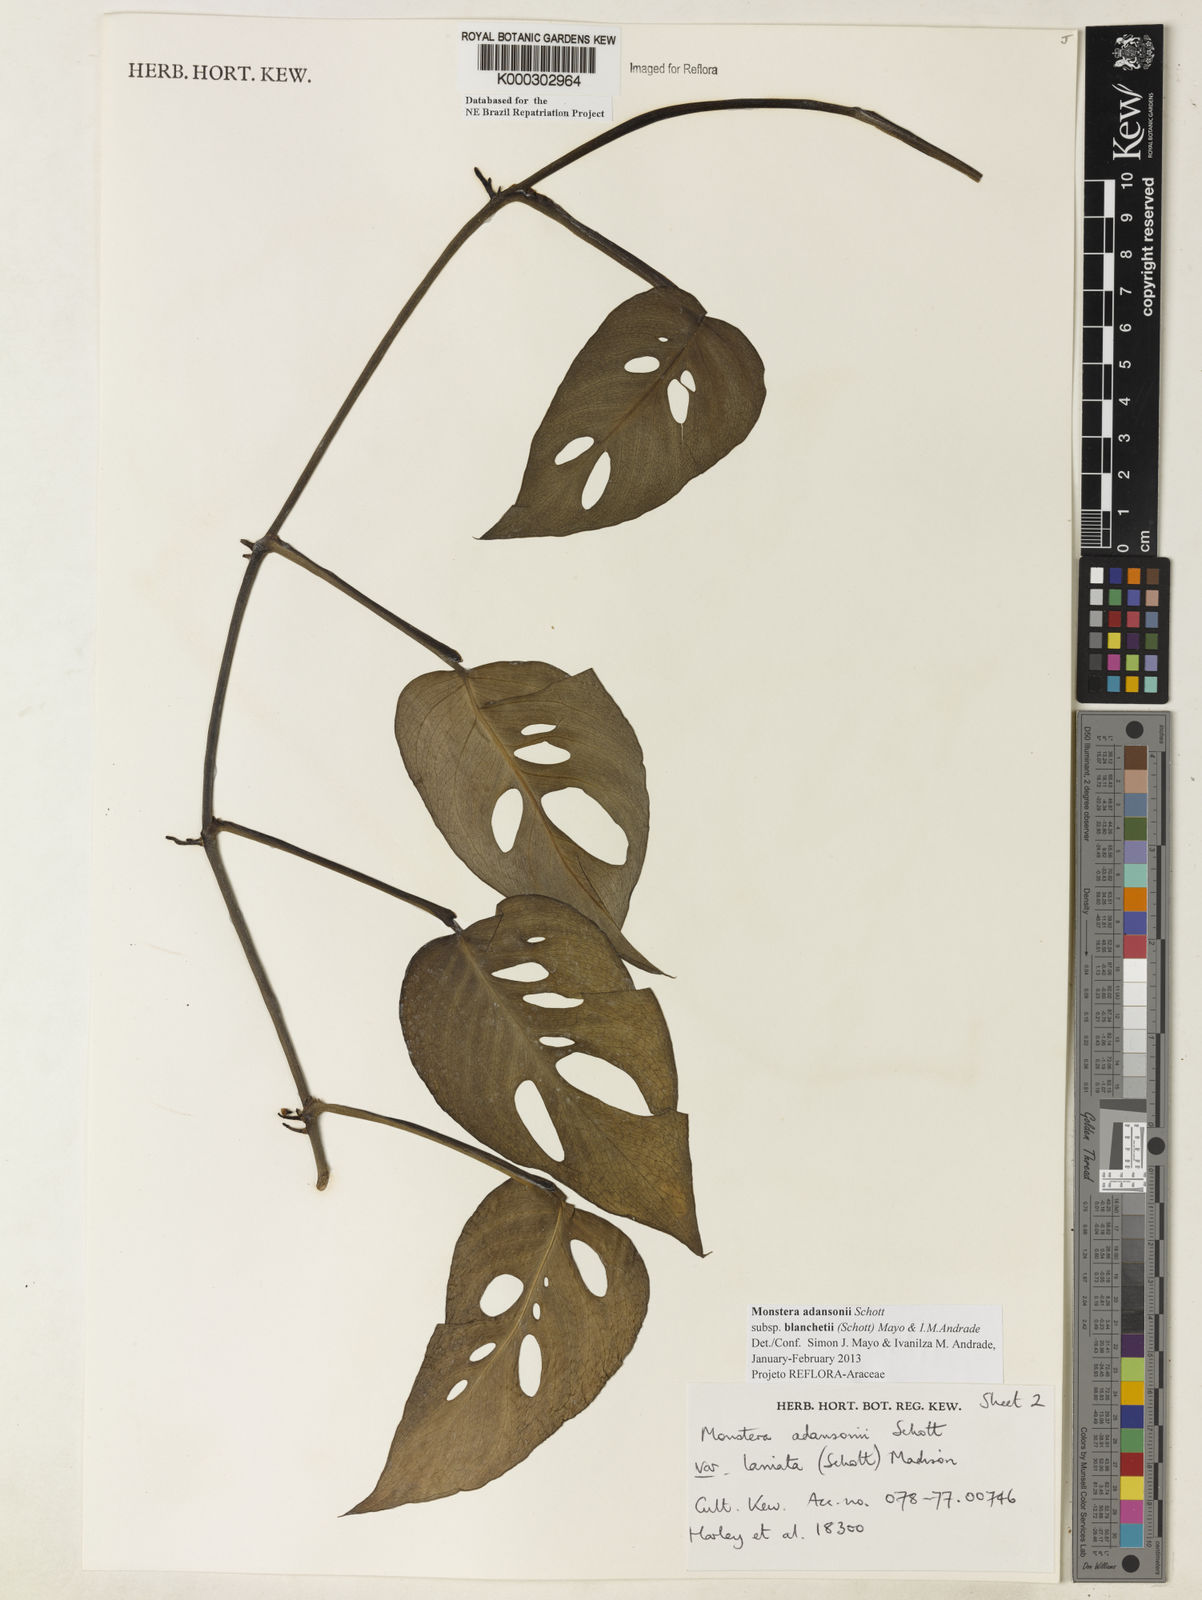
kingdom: Plantae
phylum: Tracheophyta
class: Liliopsida
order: Alismatales
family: Araceae
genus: Monstera
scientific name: Monstera adansonii
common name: Tarovine
